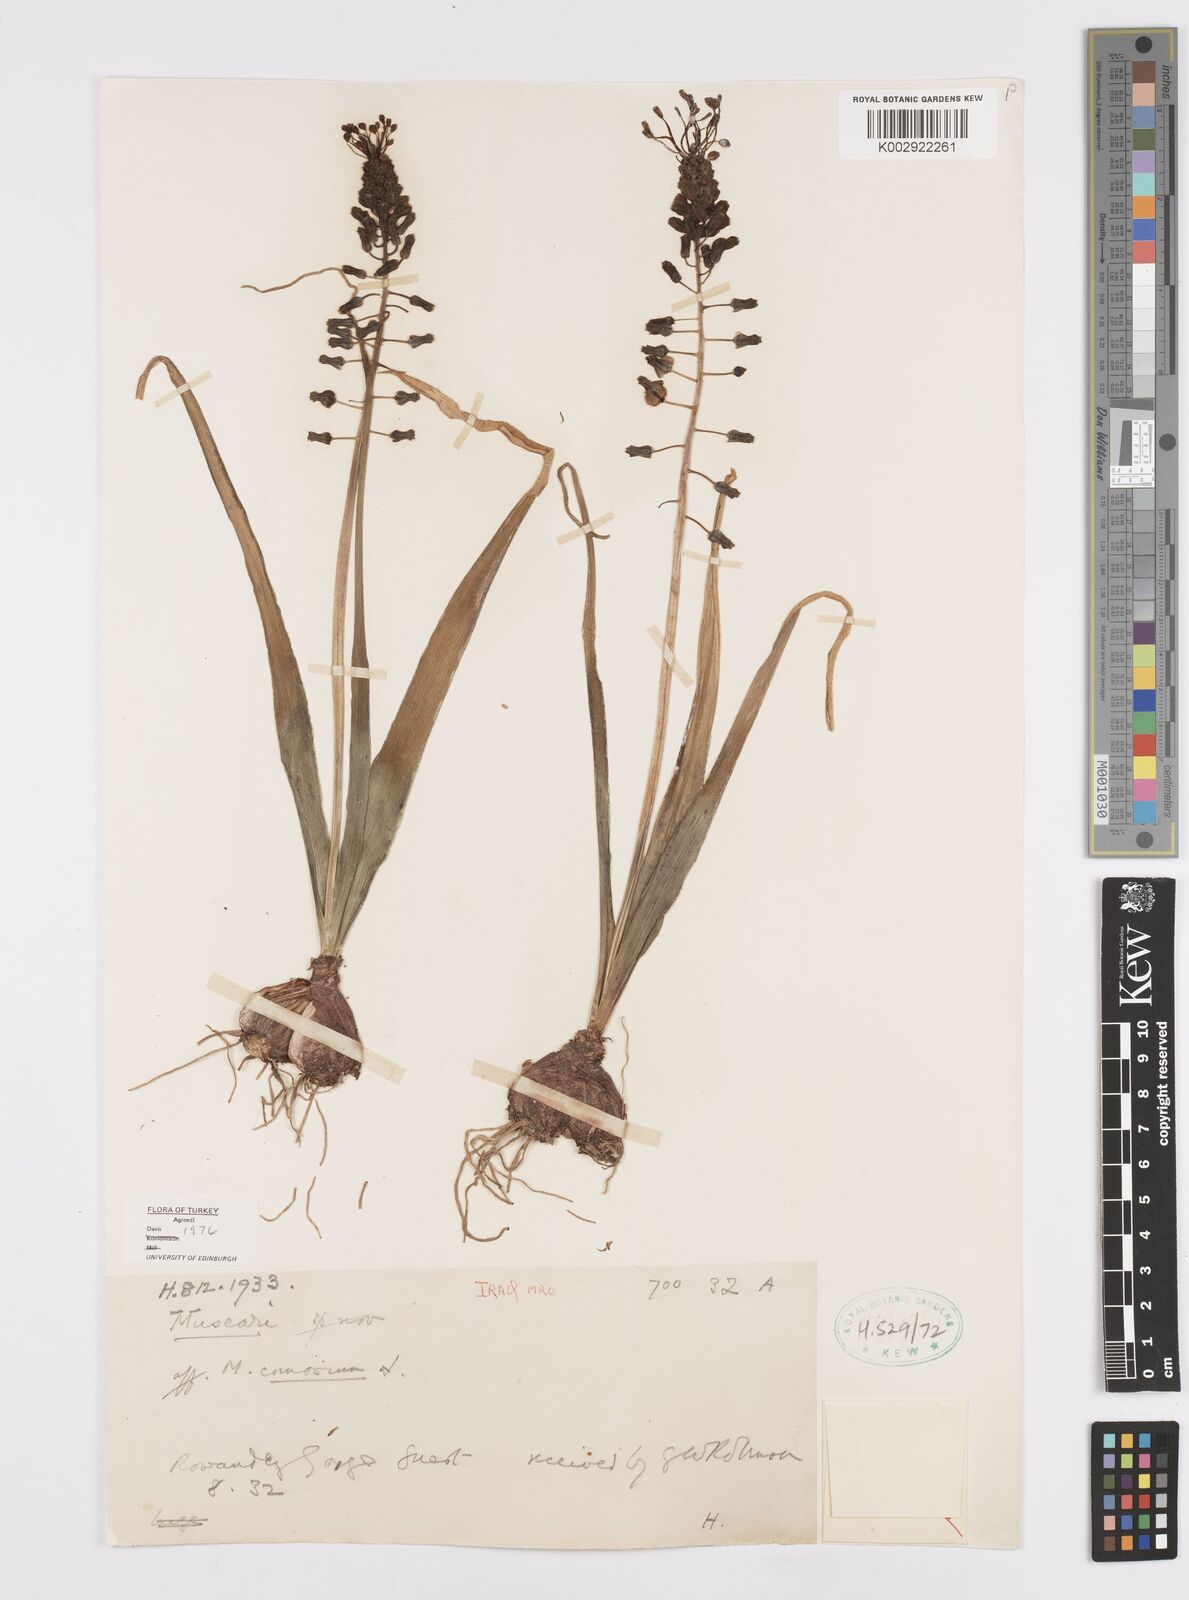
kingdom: Plantae
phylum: Tracheophyta
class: Liliopsida
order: Asparagales
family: Asparagaceae
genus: Muscari
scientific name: Muscari comosum
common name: Tassel hyacinth
